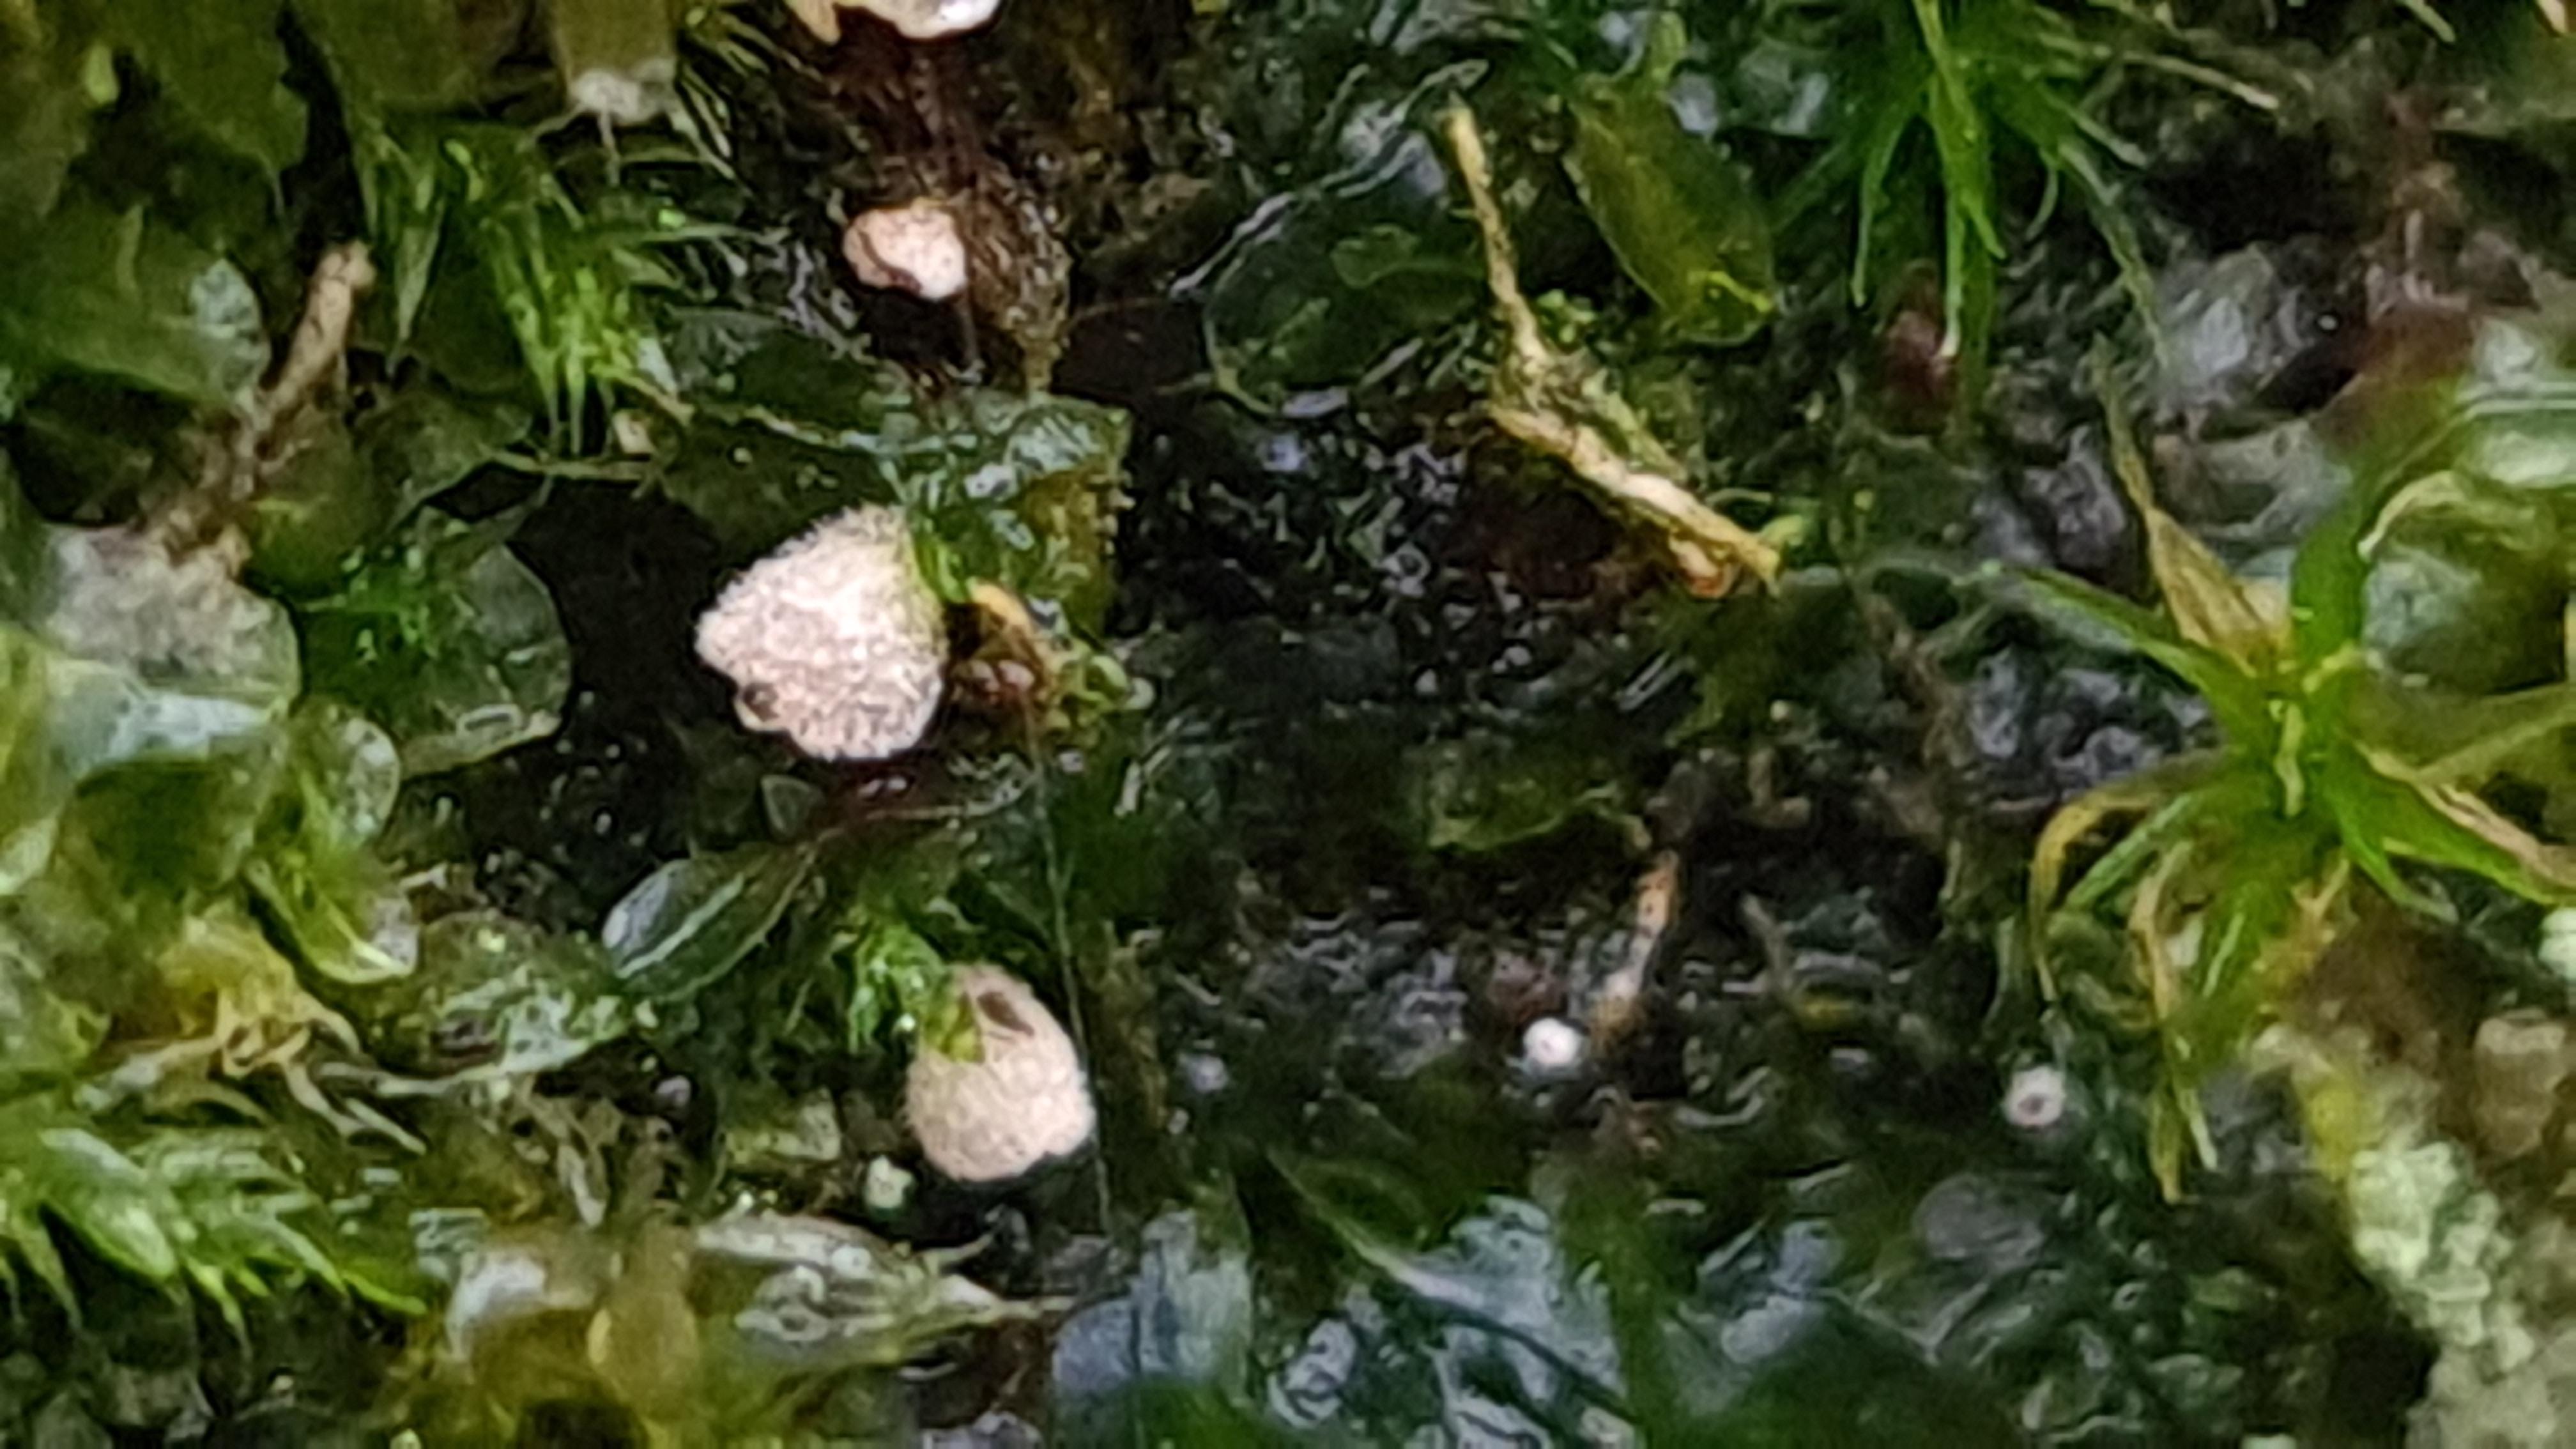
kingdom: Fungi
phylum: Basidiomycota
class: Agaricomycetes
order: Agaricales
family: Chromocyphellaceae
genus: Chromocyphella
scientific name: Chromocyphella muscicola
